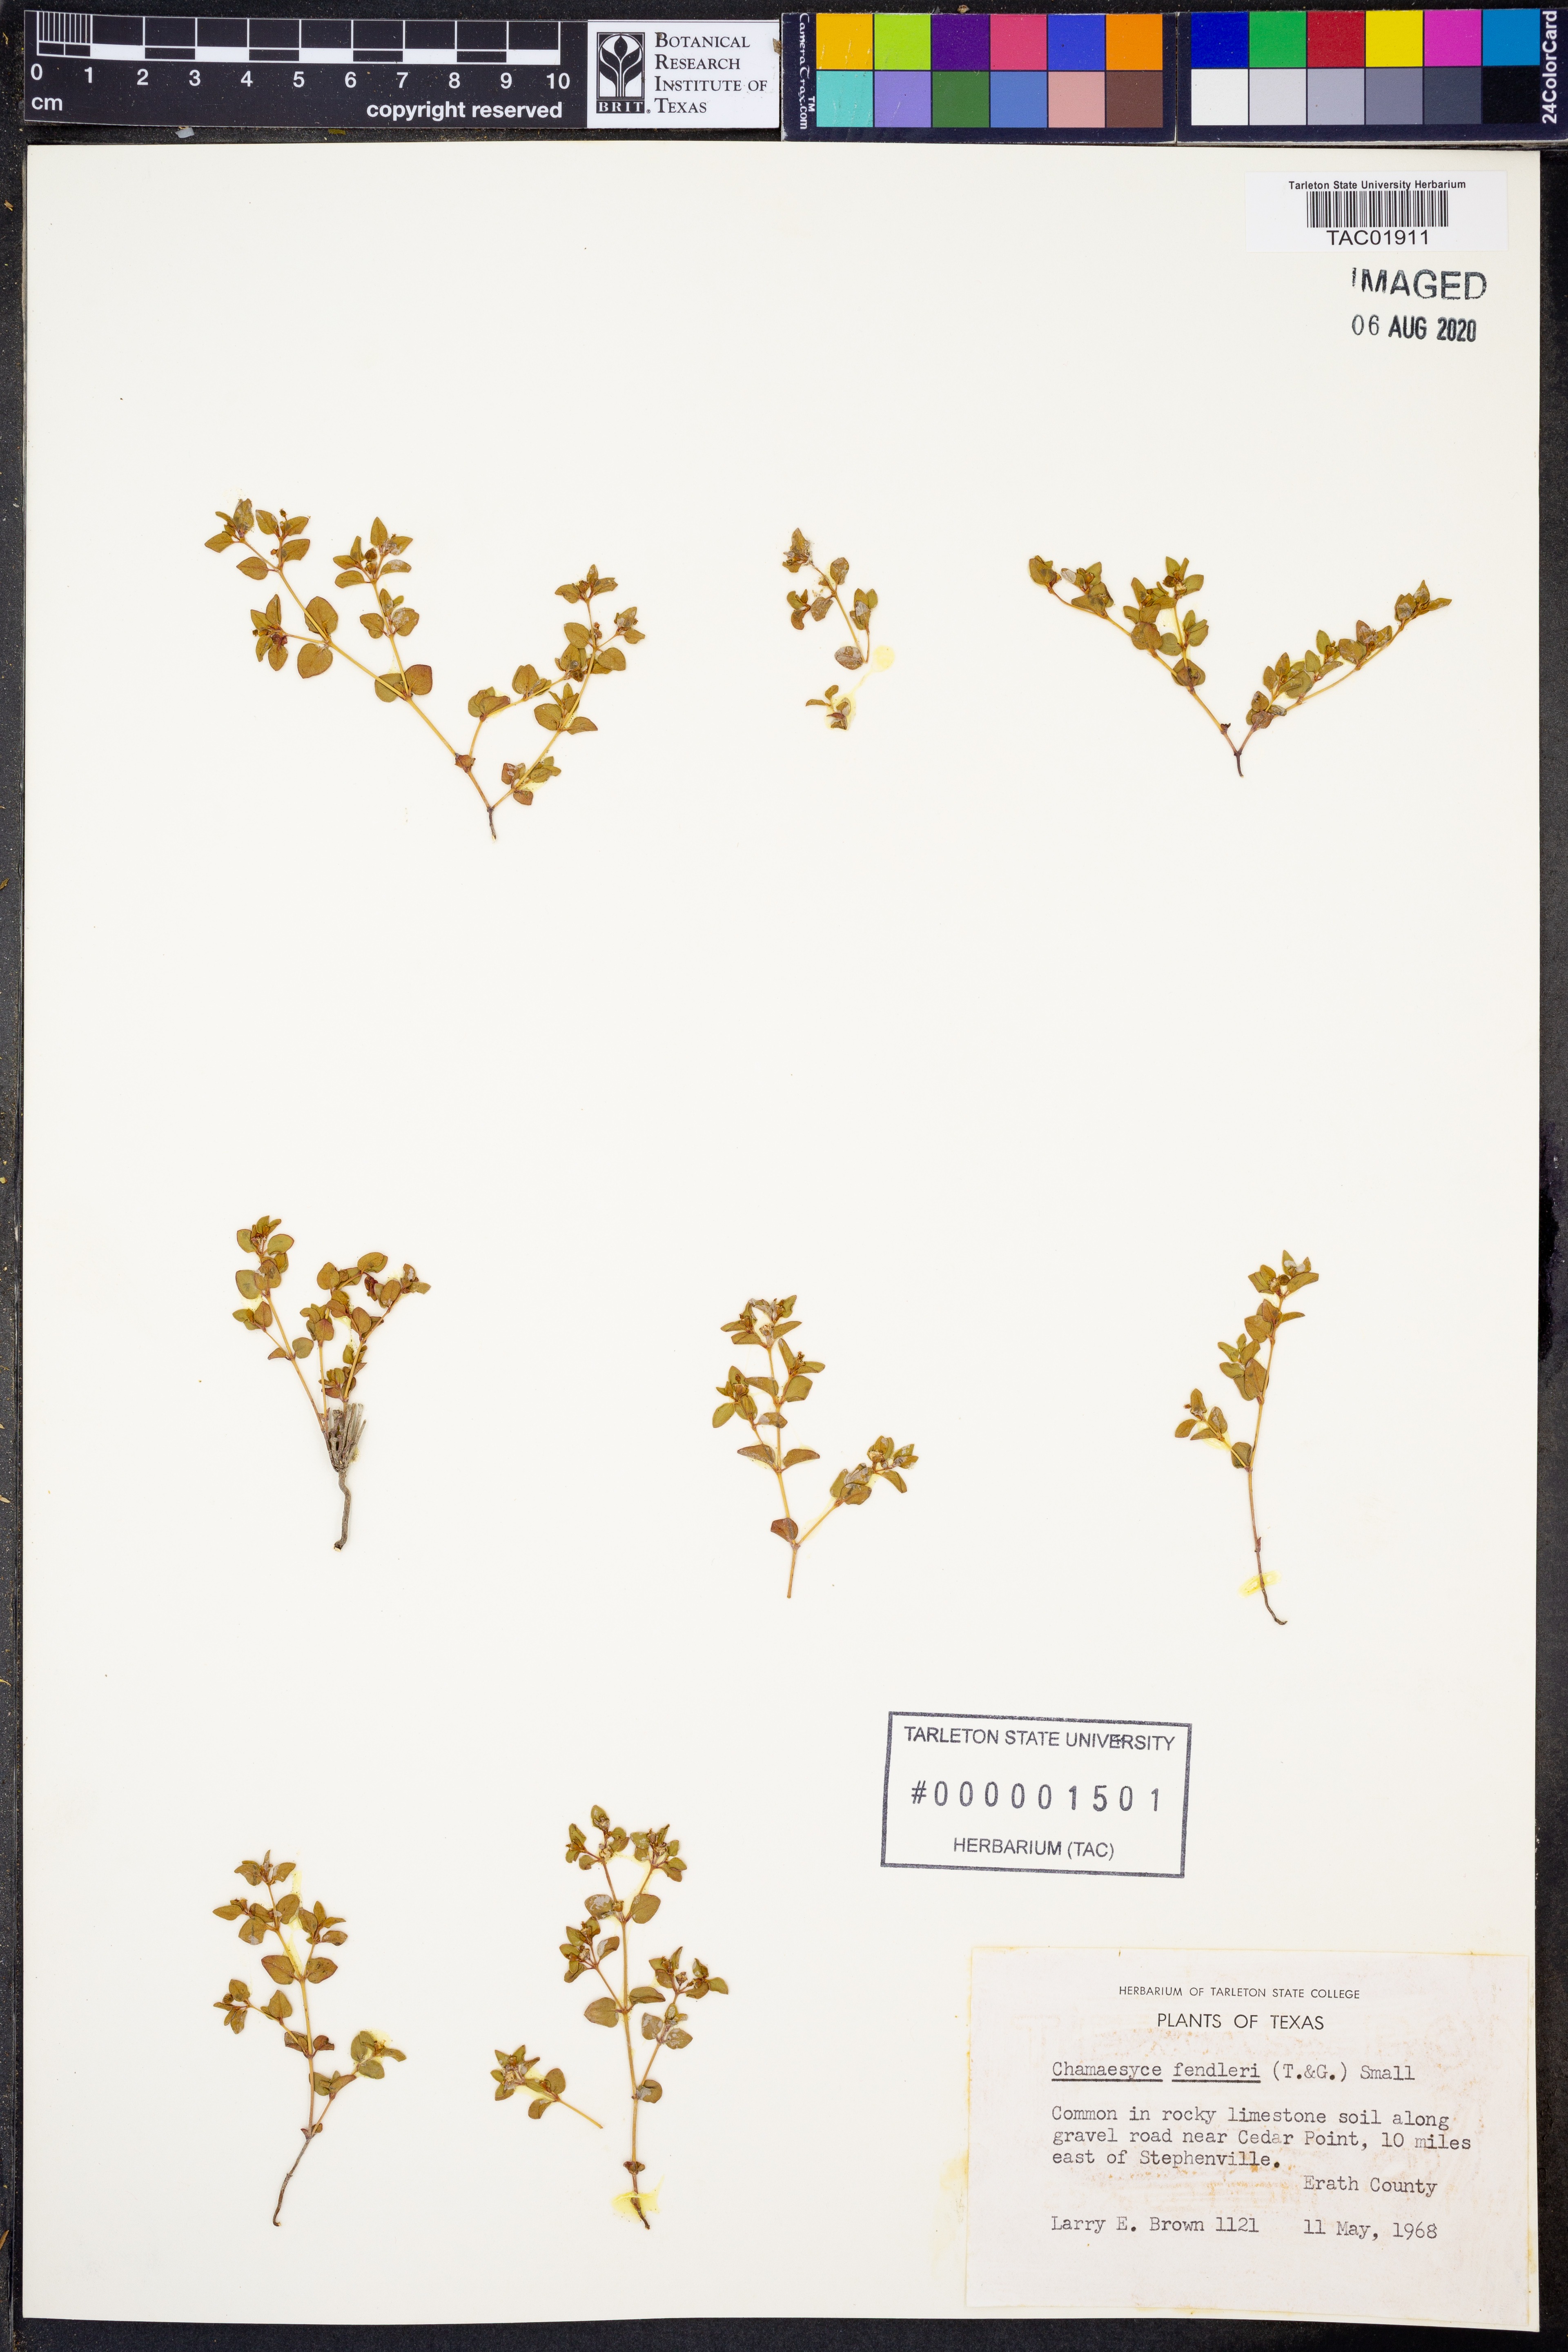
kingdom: Plantae
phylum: Tracheophyta
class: Magnoliopsida
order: Malpighiales
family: Euphorbiaceae
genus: Euphorbia
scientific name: Euphorbia fendleri
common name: Fendler's euphorbia
